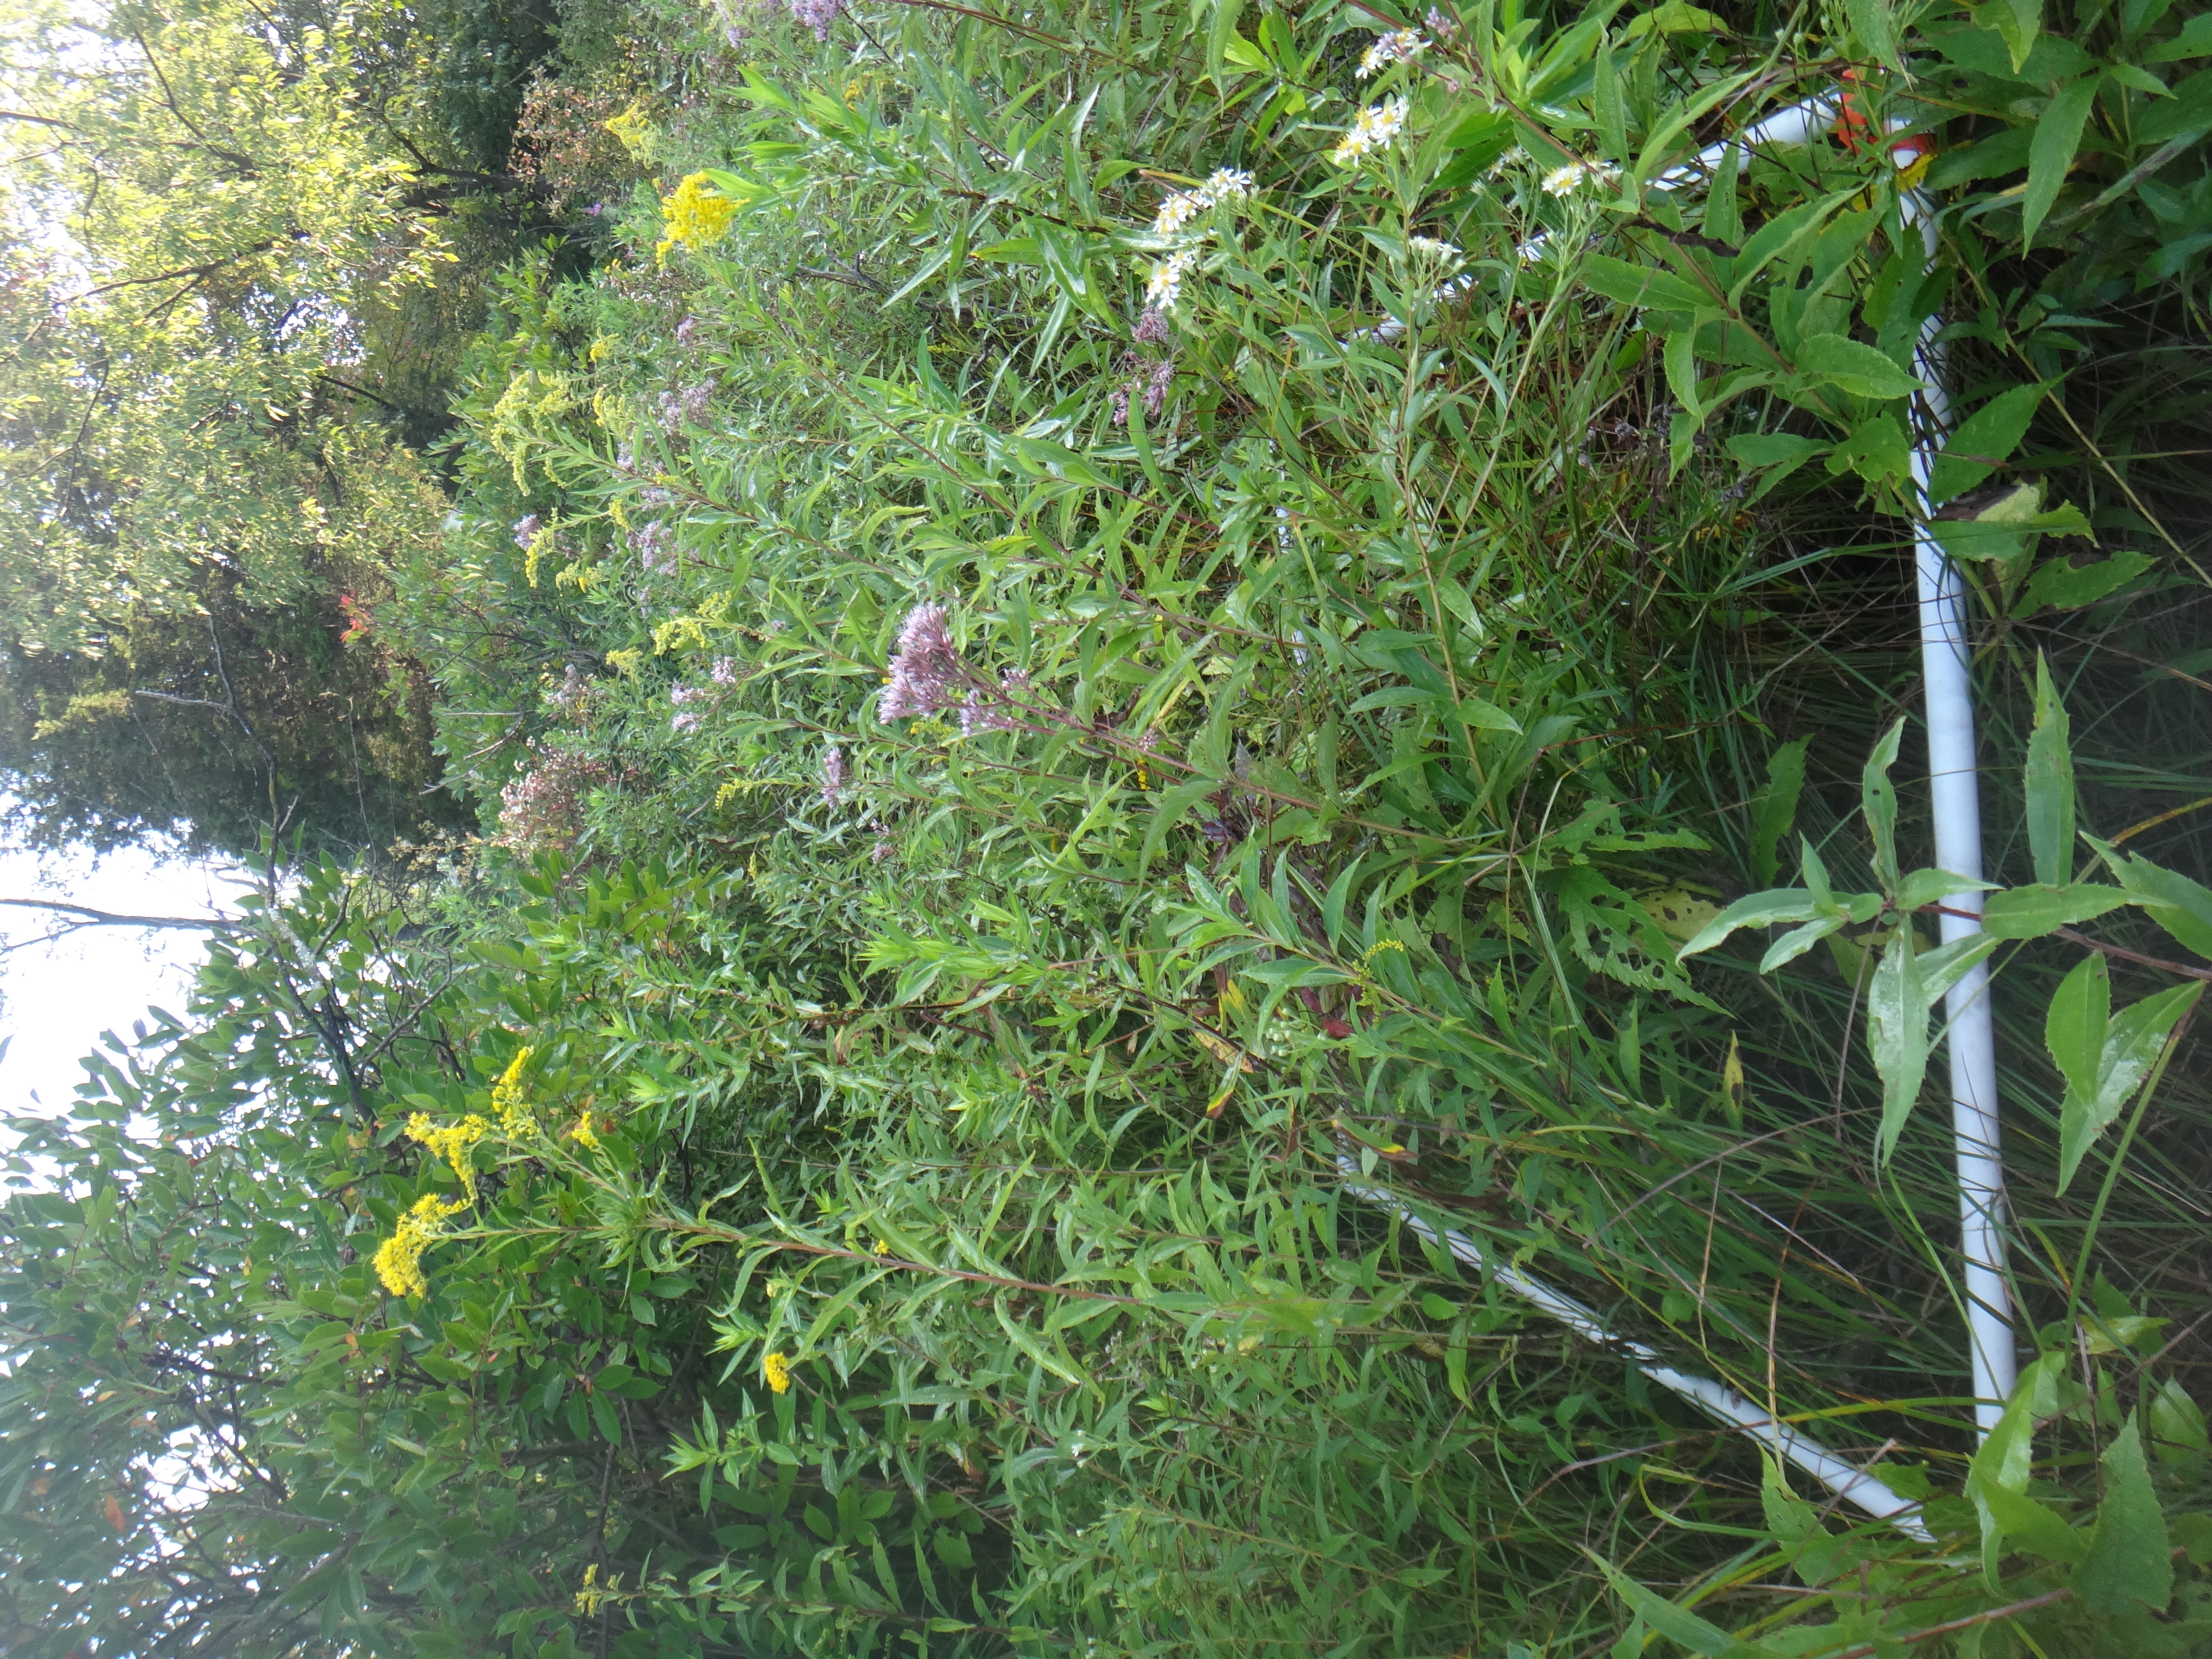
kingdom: Plantae
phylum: Tracheophyta
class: Polypodiopsida
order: Polypodiales
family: Thelypteridaceae
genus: Thelypteris
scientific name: Thelypteris palustris
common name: Marsh fern
